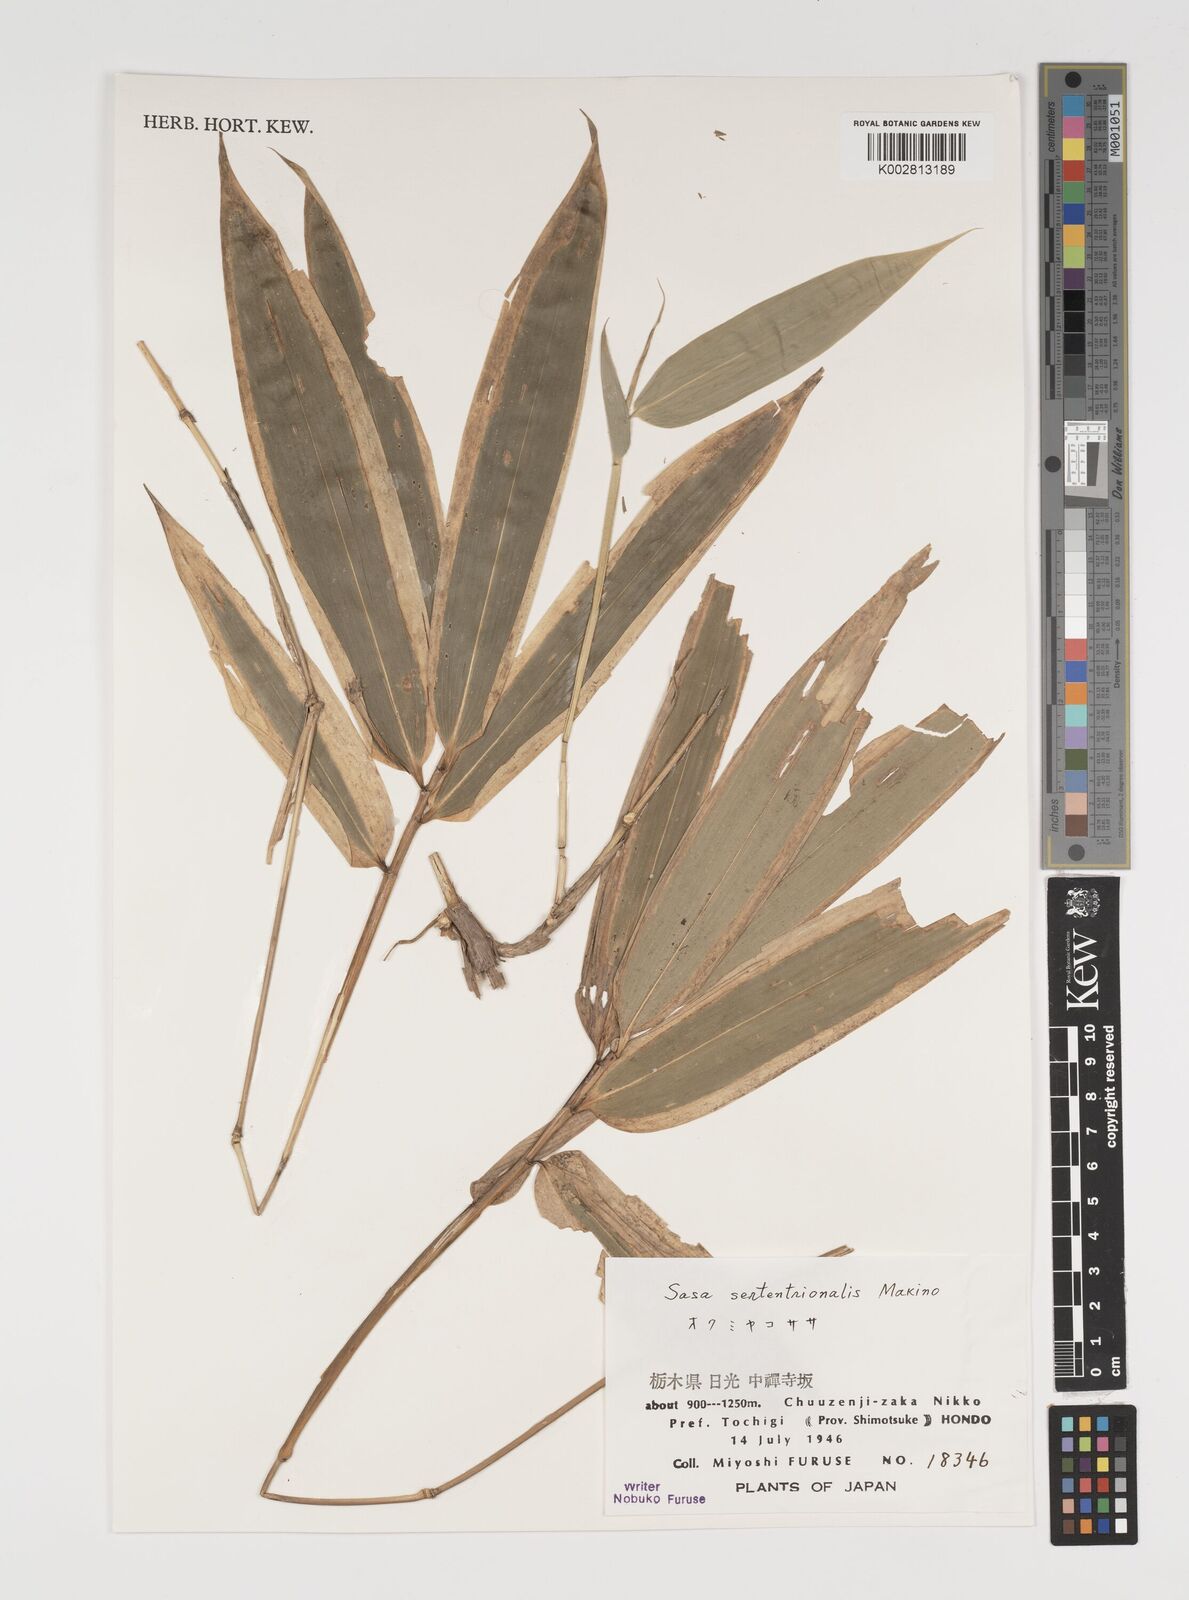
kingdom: Plantae
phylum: Tracheophyta
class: Liliopsida
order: Poales
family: Poaceae
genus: Sasa
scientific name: Sasa septentrionalis
